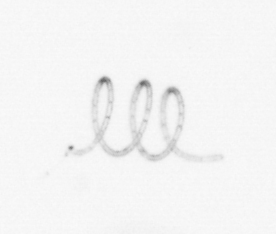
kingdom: Chromista
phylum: Ochrophyta
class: Bacillariophyceae
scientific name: Bacillariophyceae
